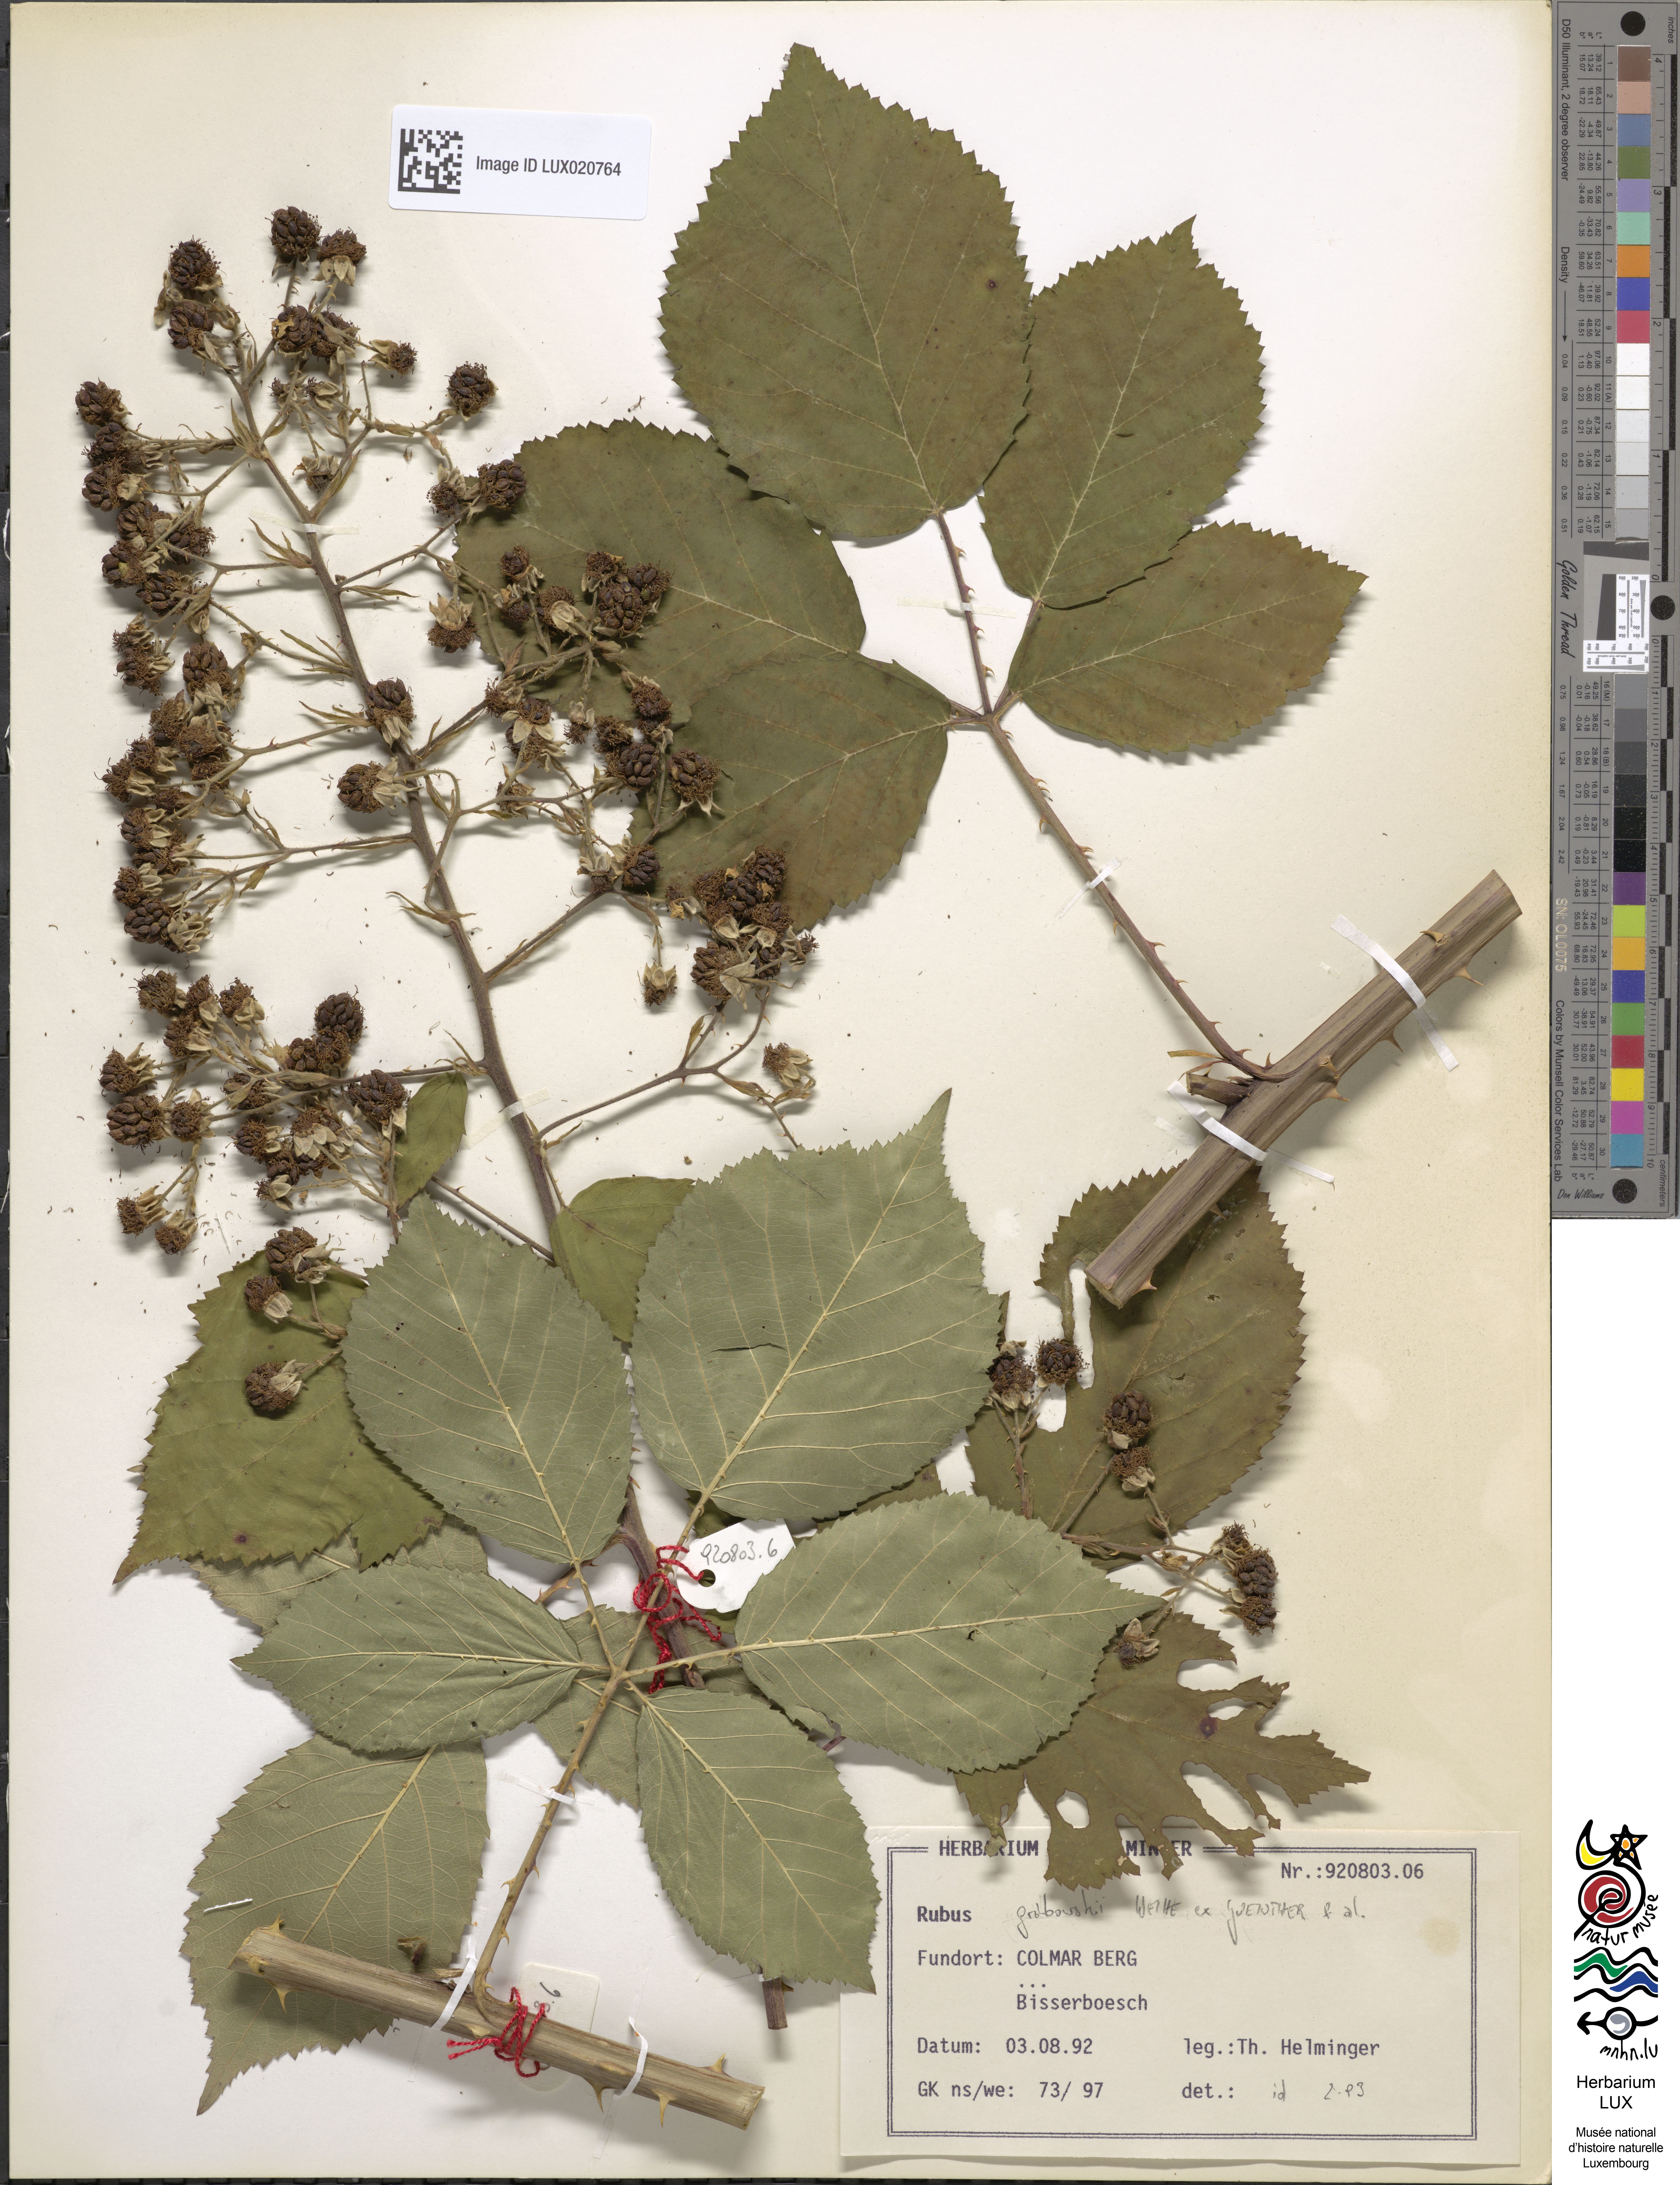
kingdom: Plantae
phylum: Tracheophyta
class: Magnoliopsida
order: Rosales
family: Rosaceae
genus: Rubus
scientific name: Rubus grabowskii
